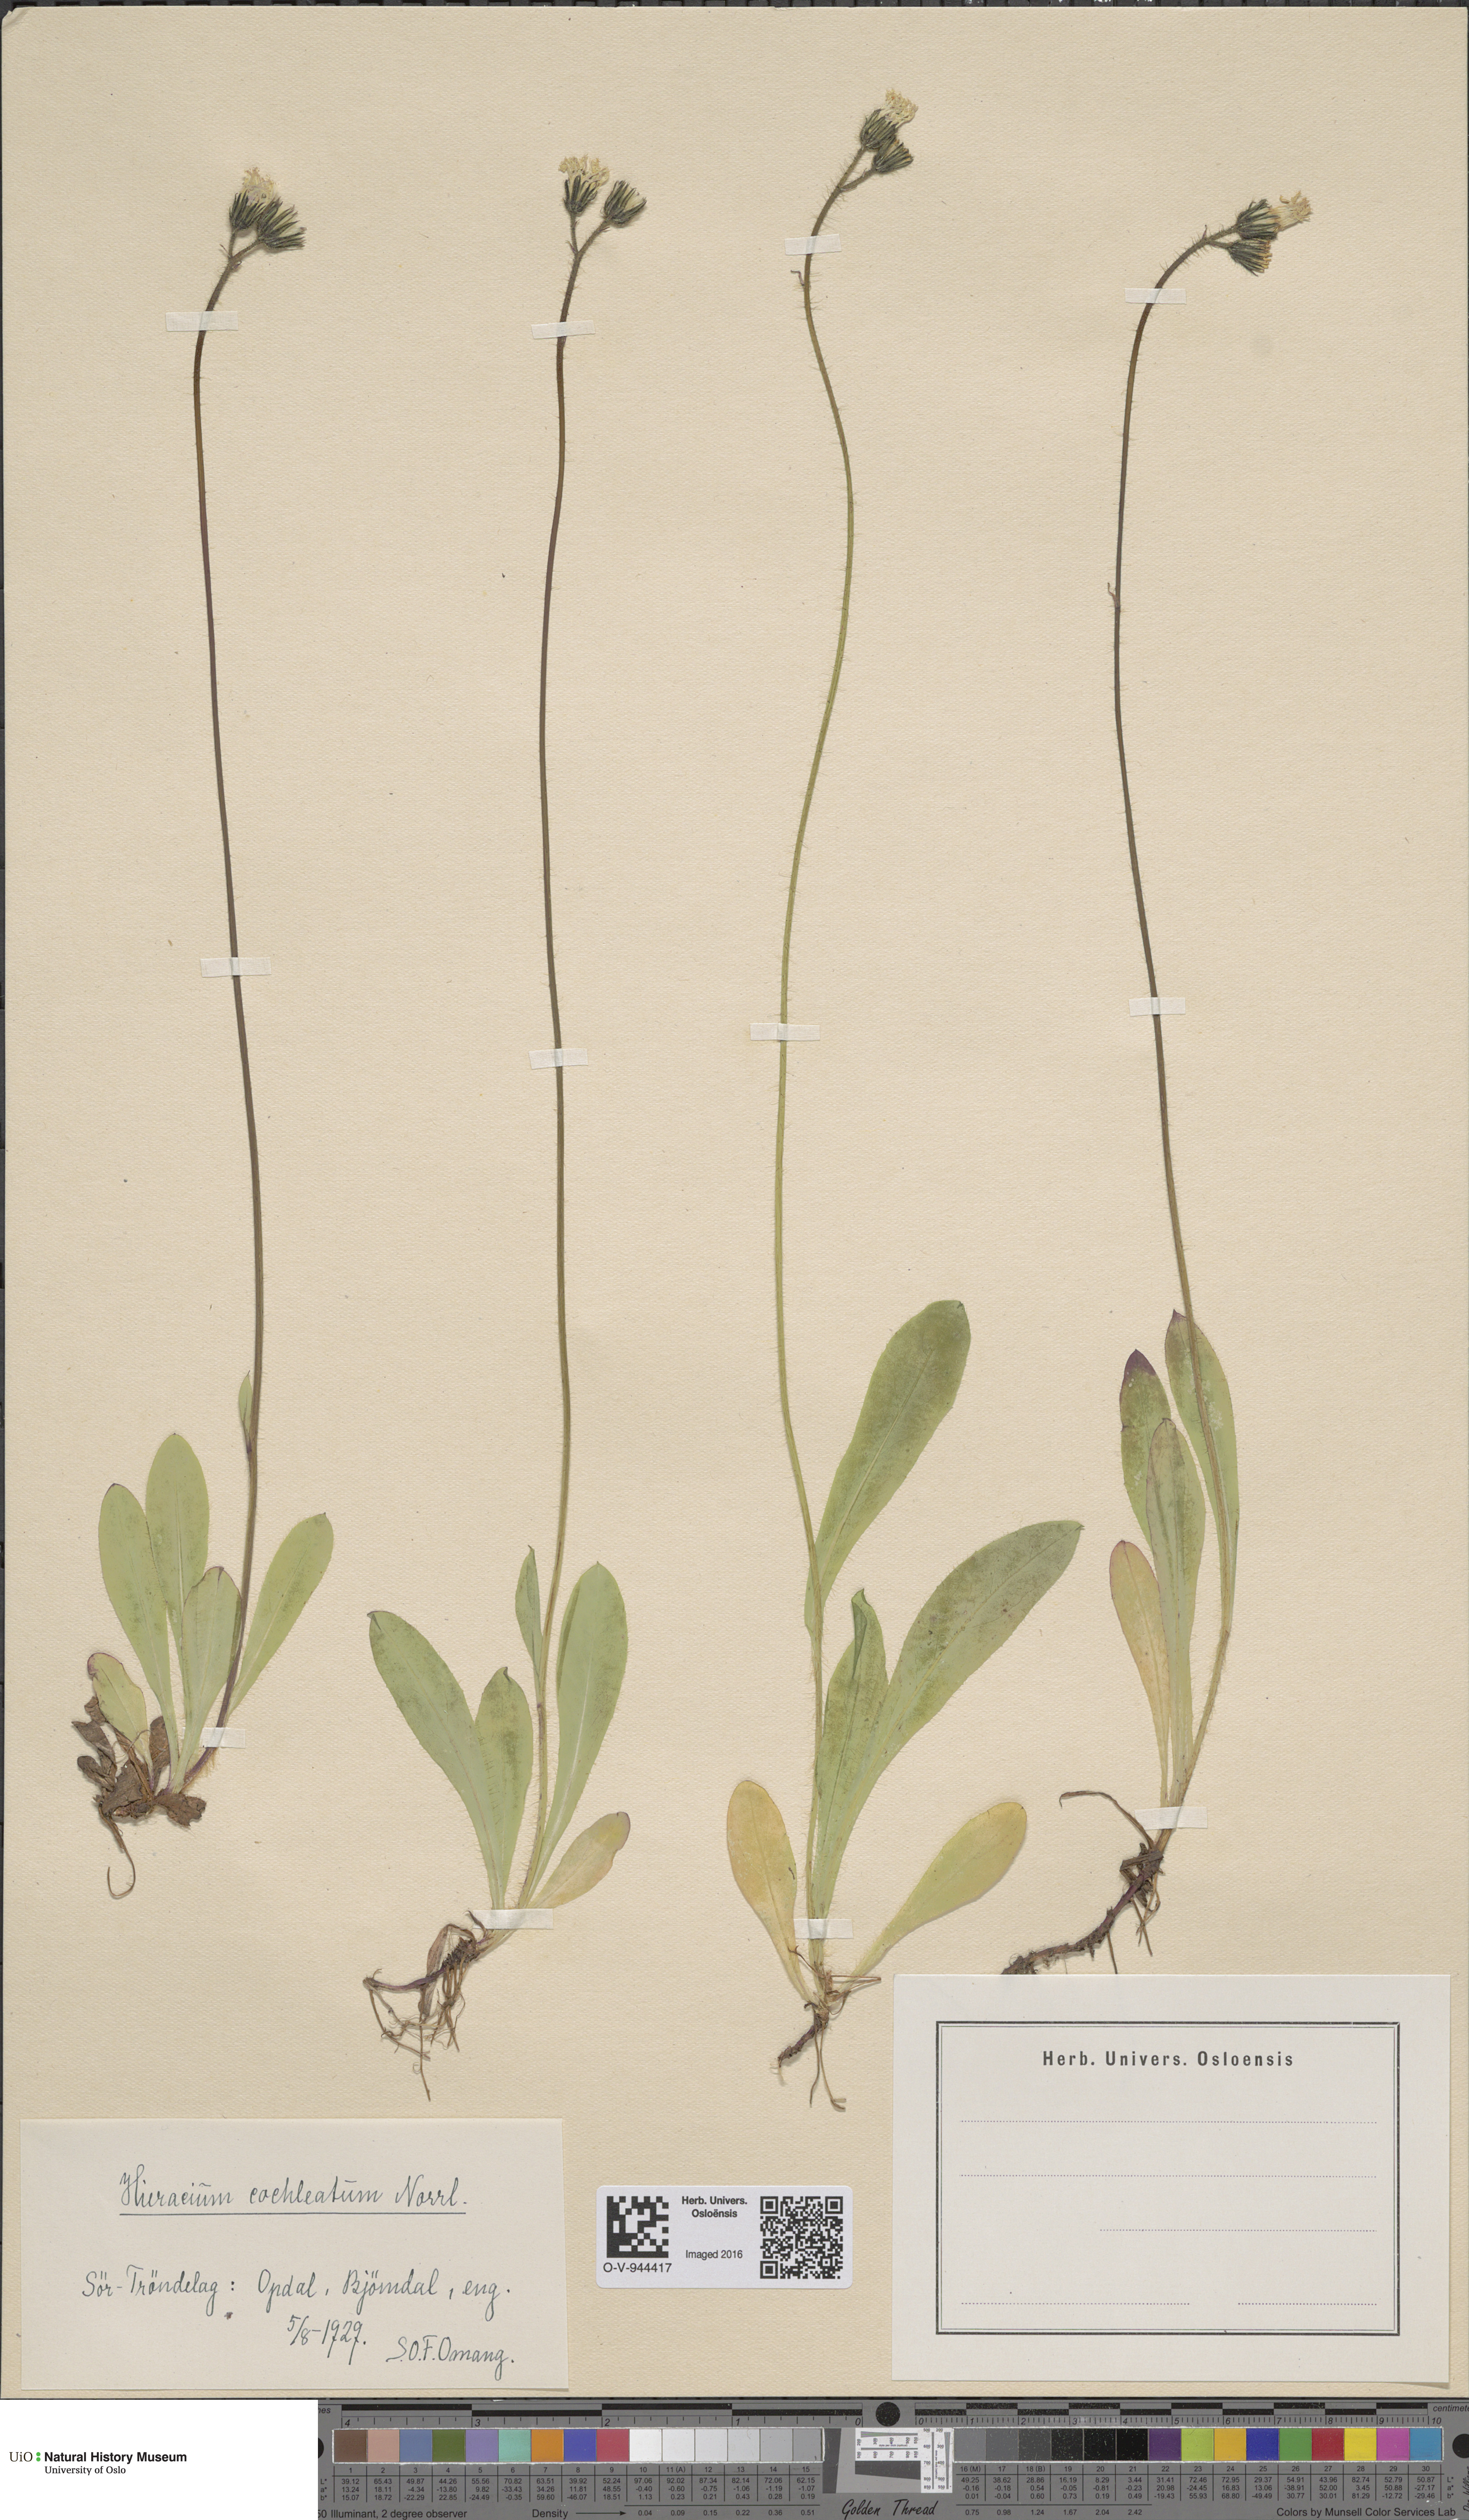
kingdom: Plantae
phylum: Tracheophyta
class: Magnoliopsida
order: Asterales
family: Asteraceae
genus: Pilosella
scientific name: Pilosella floribunda
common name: Glaucous hawkweed
